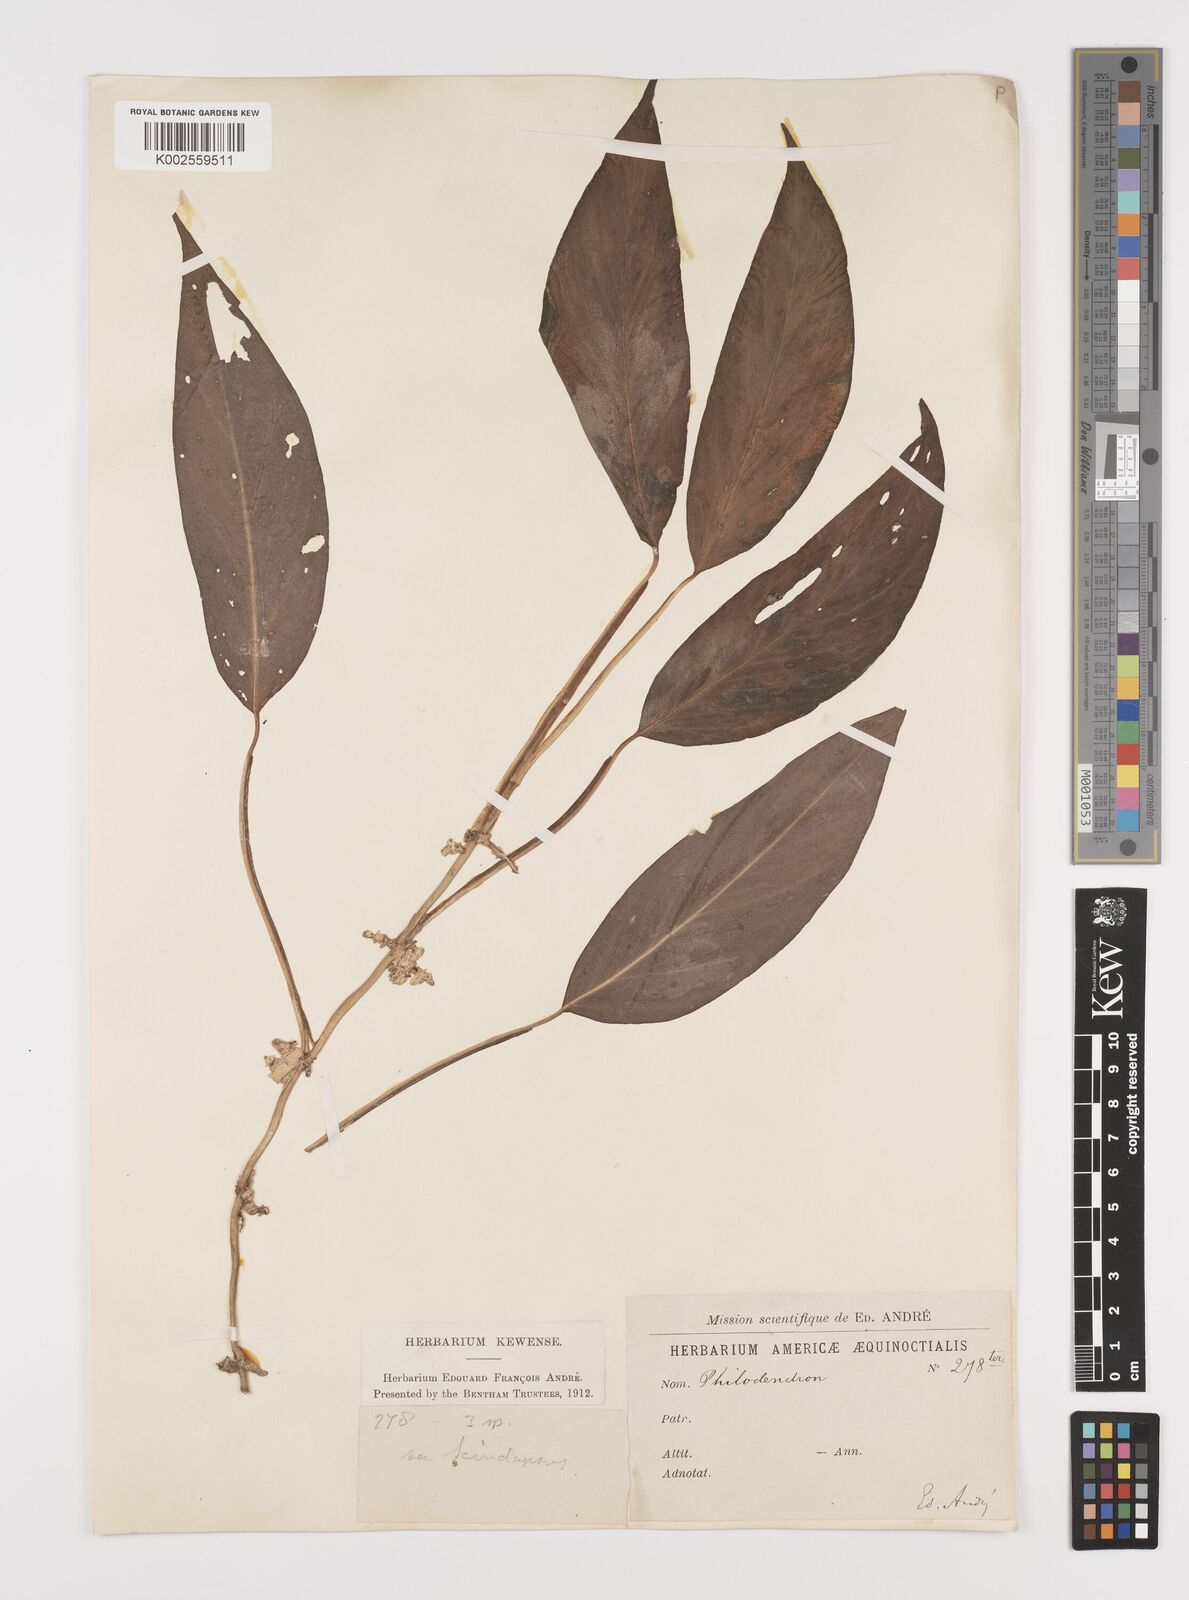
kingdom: Plantae
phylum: Tracheophyta
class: Liliopsida
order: Alismatales
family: Araceae
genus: Philodendron
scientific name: Philodendron
